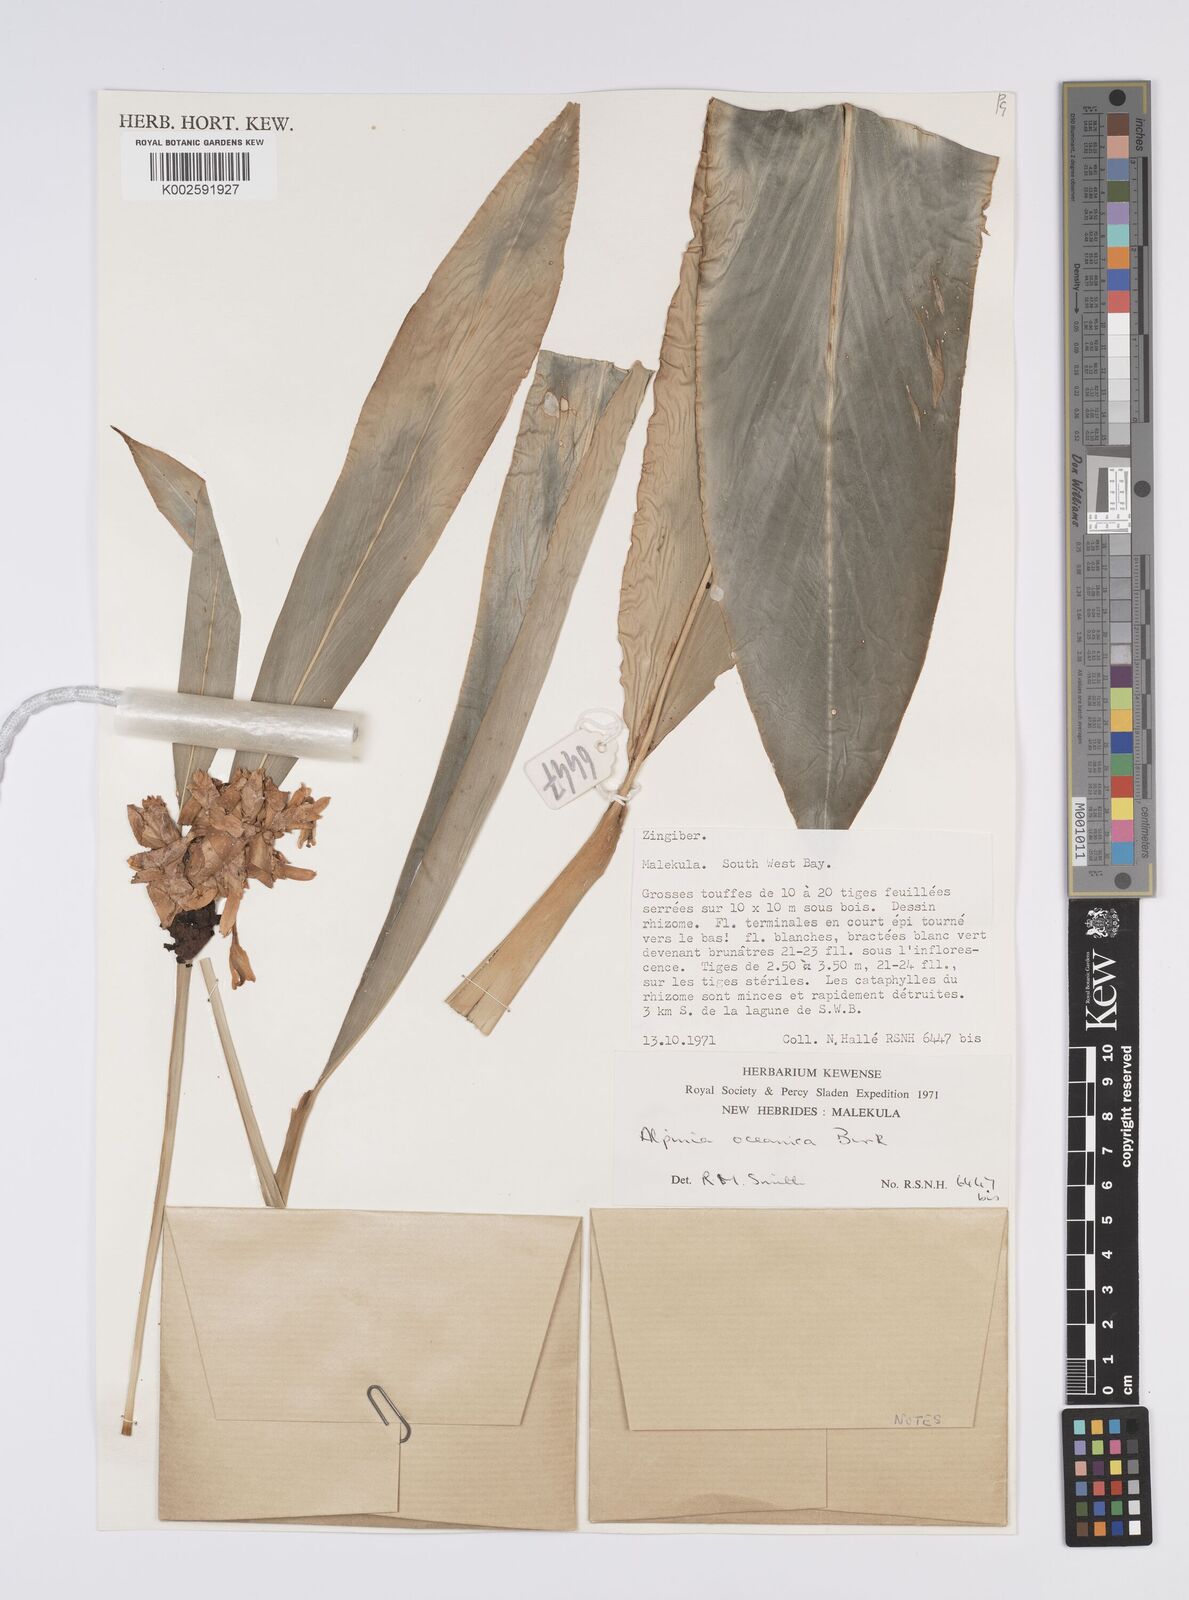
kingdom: Plantae
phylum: Tracheophyta
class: Liliopsida
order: Zingiberales
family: Zingiberaceae
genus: Alpinia
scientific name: Alpinia oceanica
